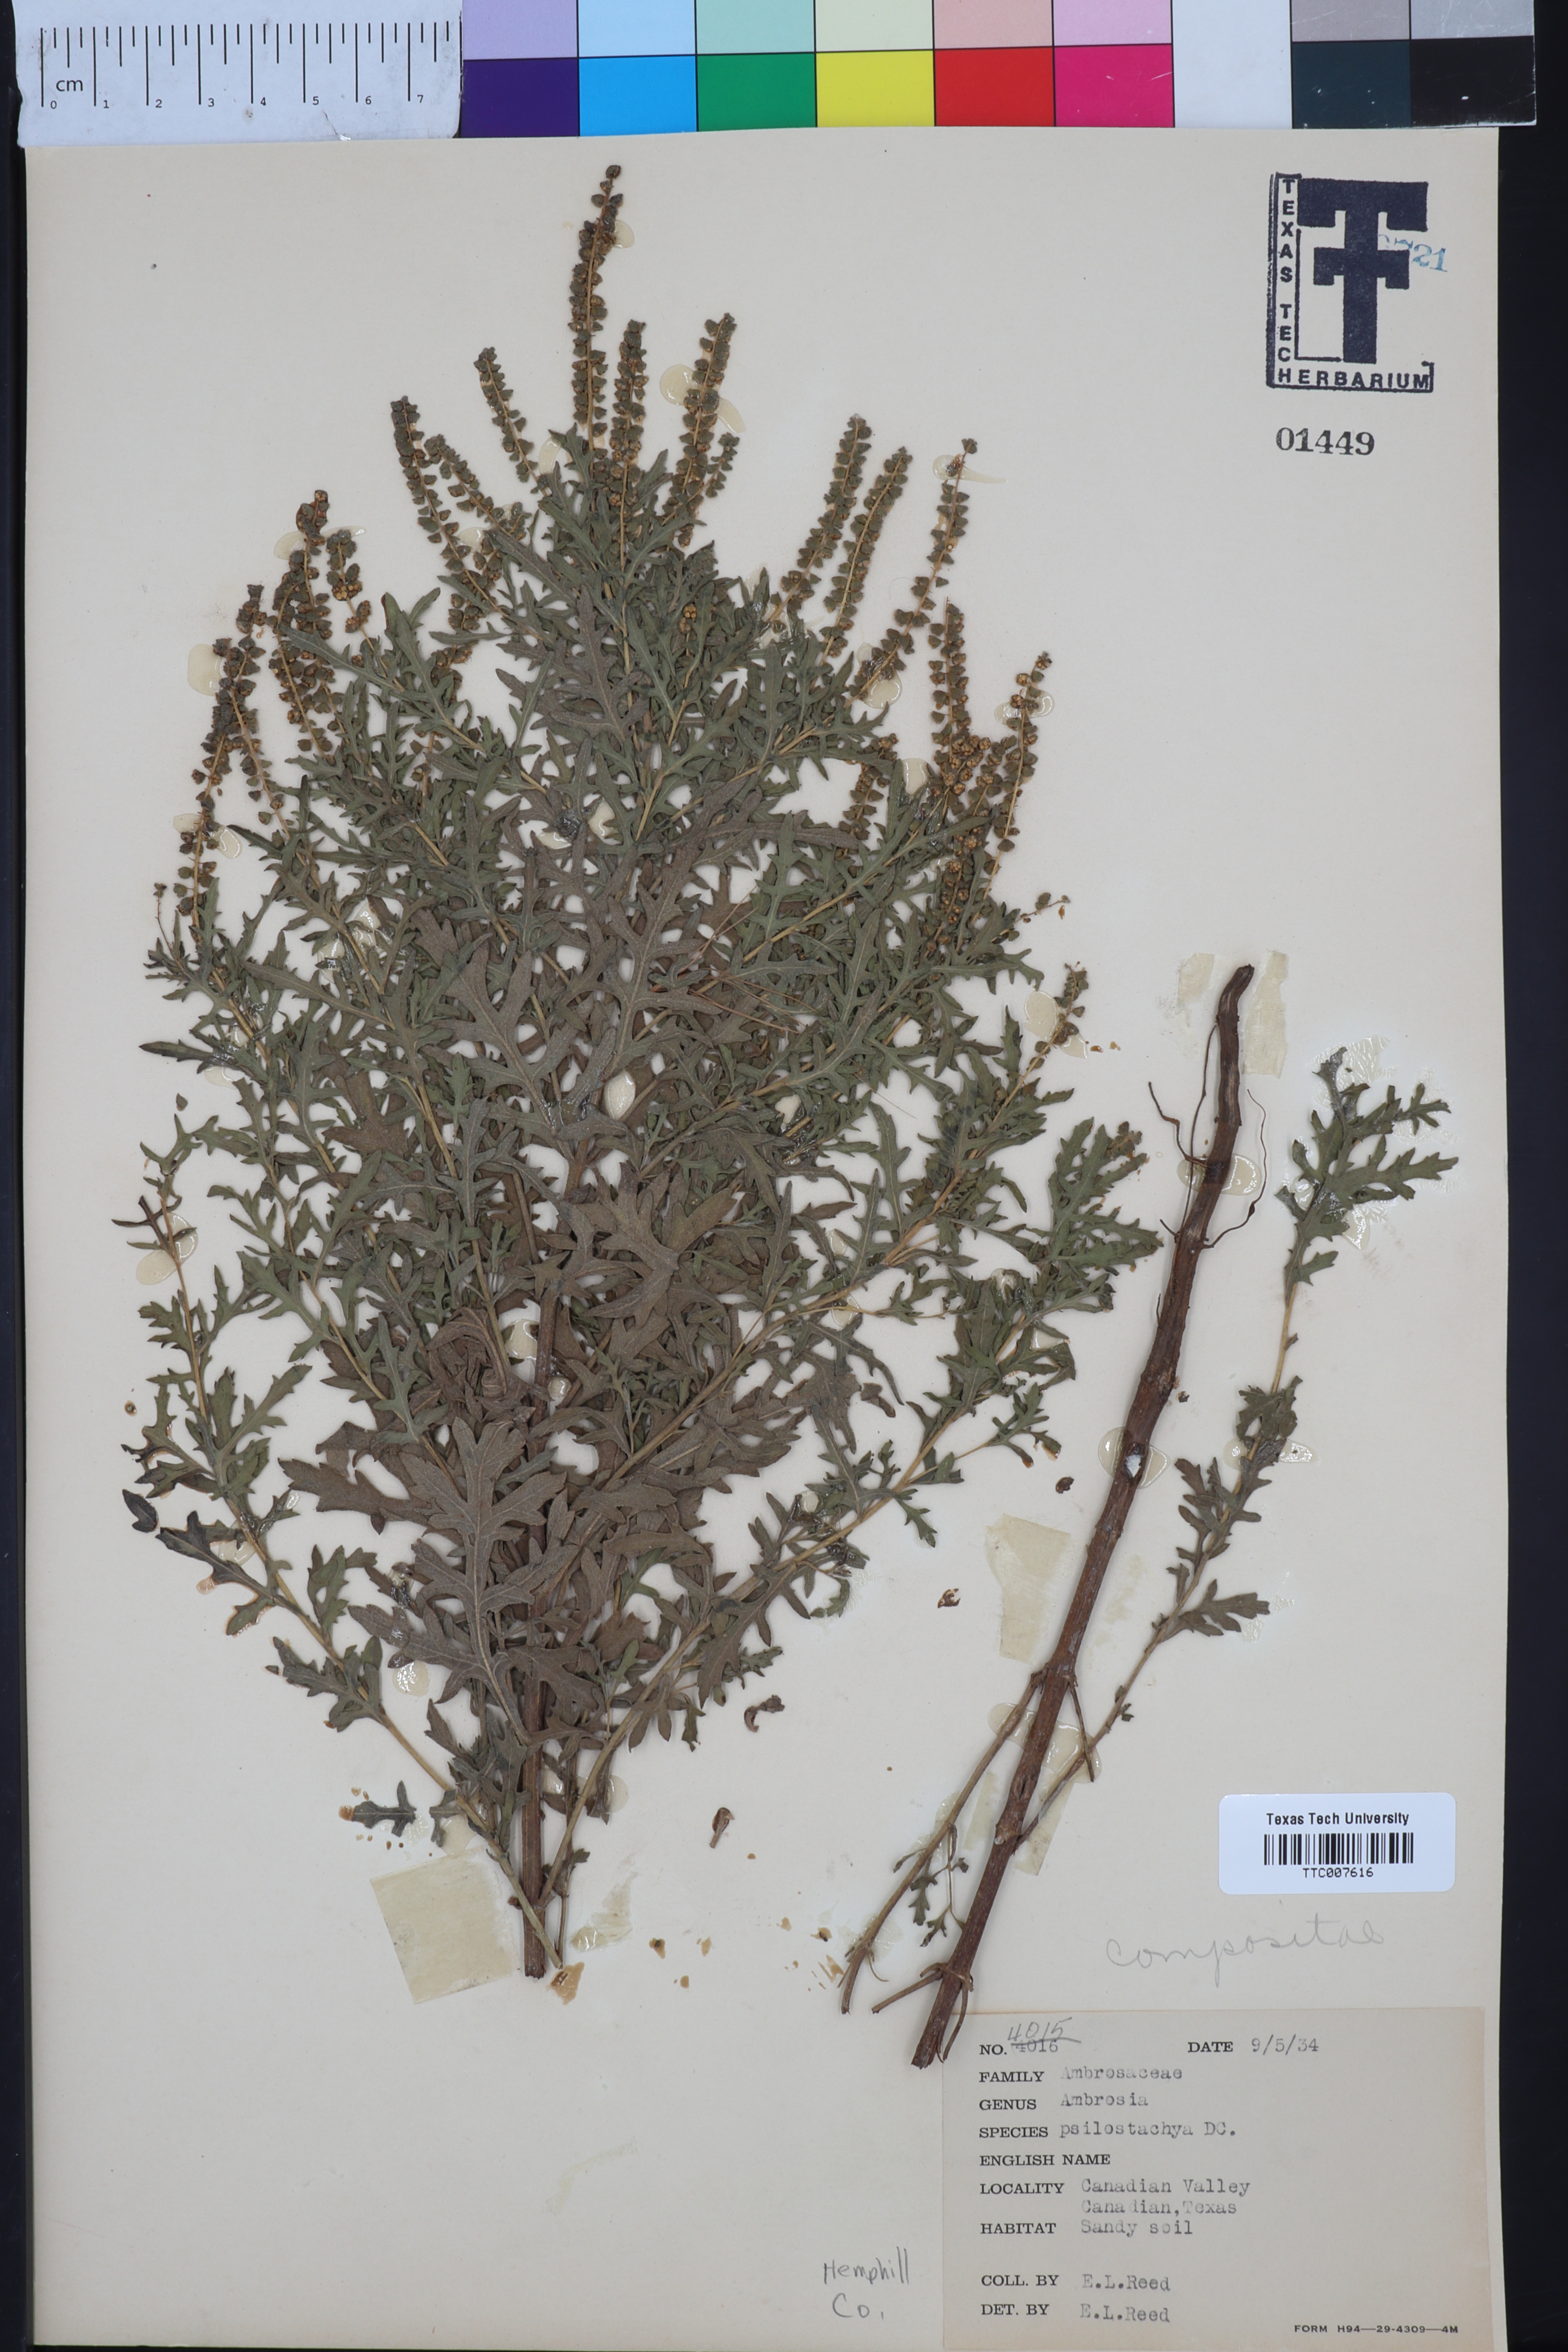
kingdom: Plantae
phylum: Tracheophyta
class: Magnoliopsida
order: Asterales
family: Asteraceae
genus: Ambrosia
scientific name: Ambrosia psilostachya
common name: Perennial ragweed
